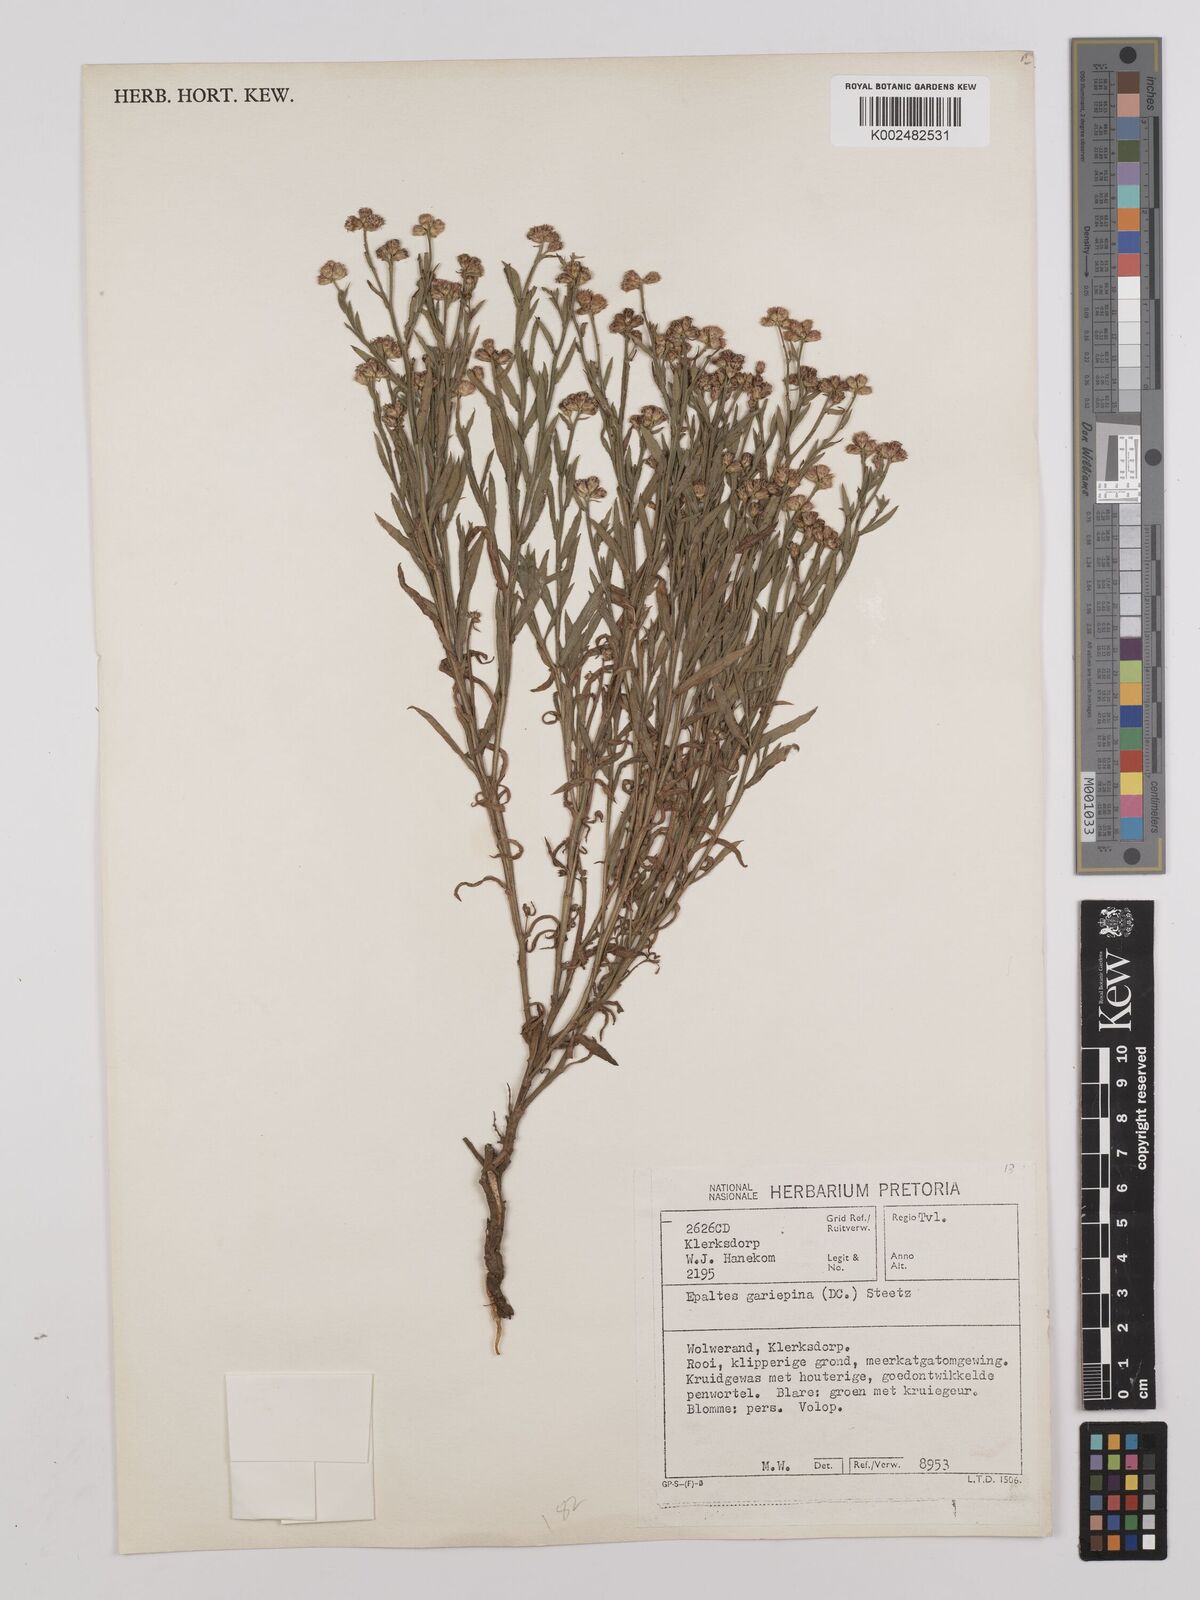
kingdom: Plantae
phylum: Tracheophyta
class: Magnoliopsida
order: Asterales
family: Asteraceae
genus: Litogyne
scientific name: Litogyne gariepina
